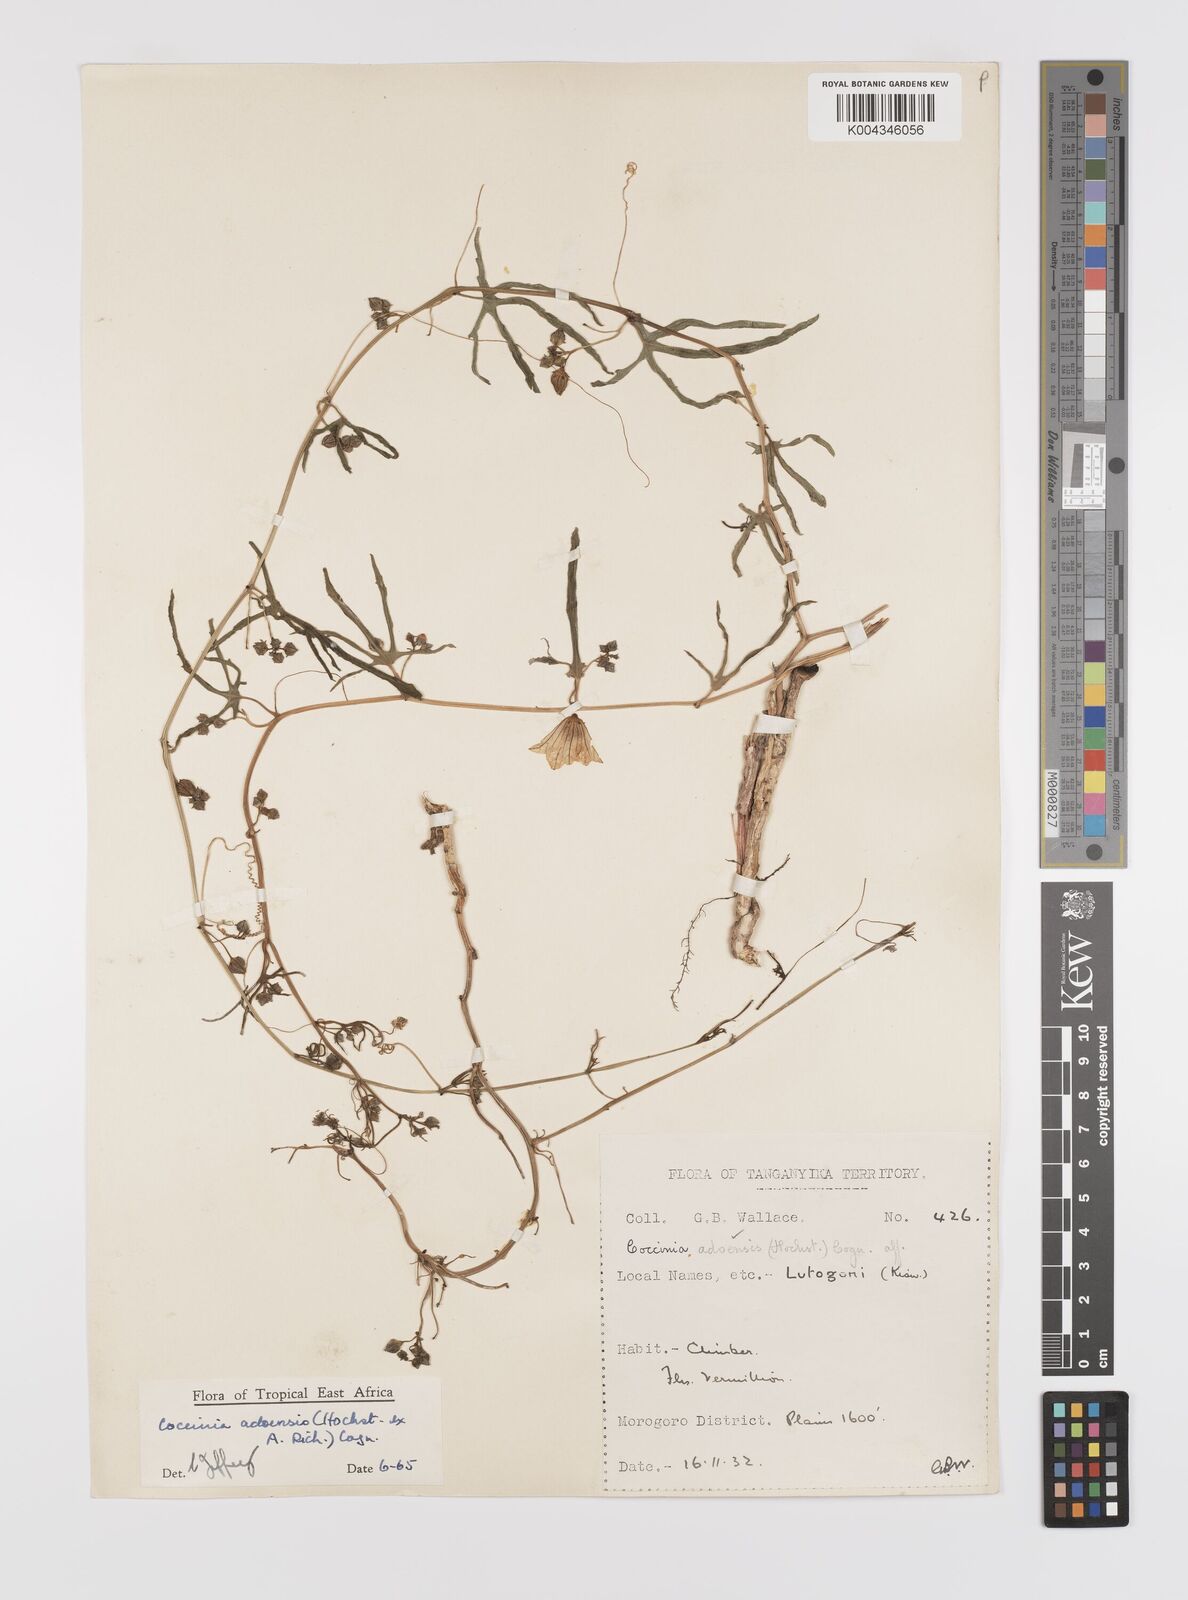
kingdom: Plantae
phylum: Tracheophyta
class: Magnoliopsida
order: Cucurbitales
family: Cucurbitaceae
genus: Coccinia
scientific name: Coccinia adoensis
